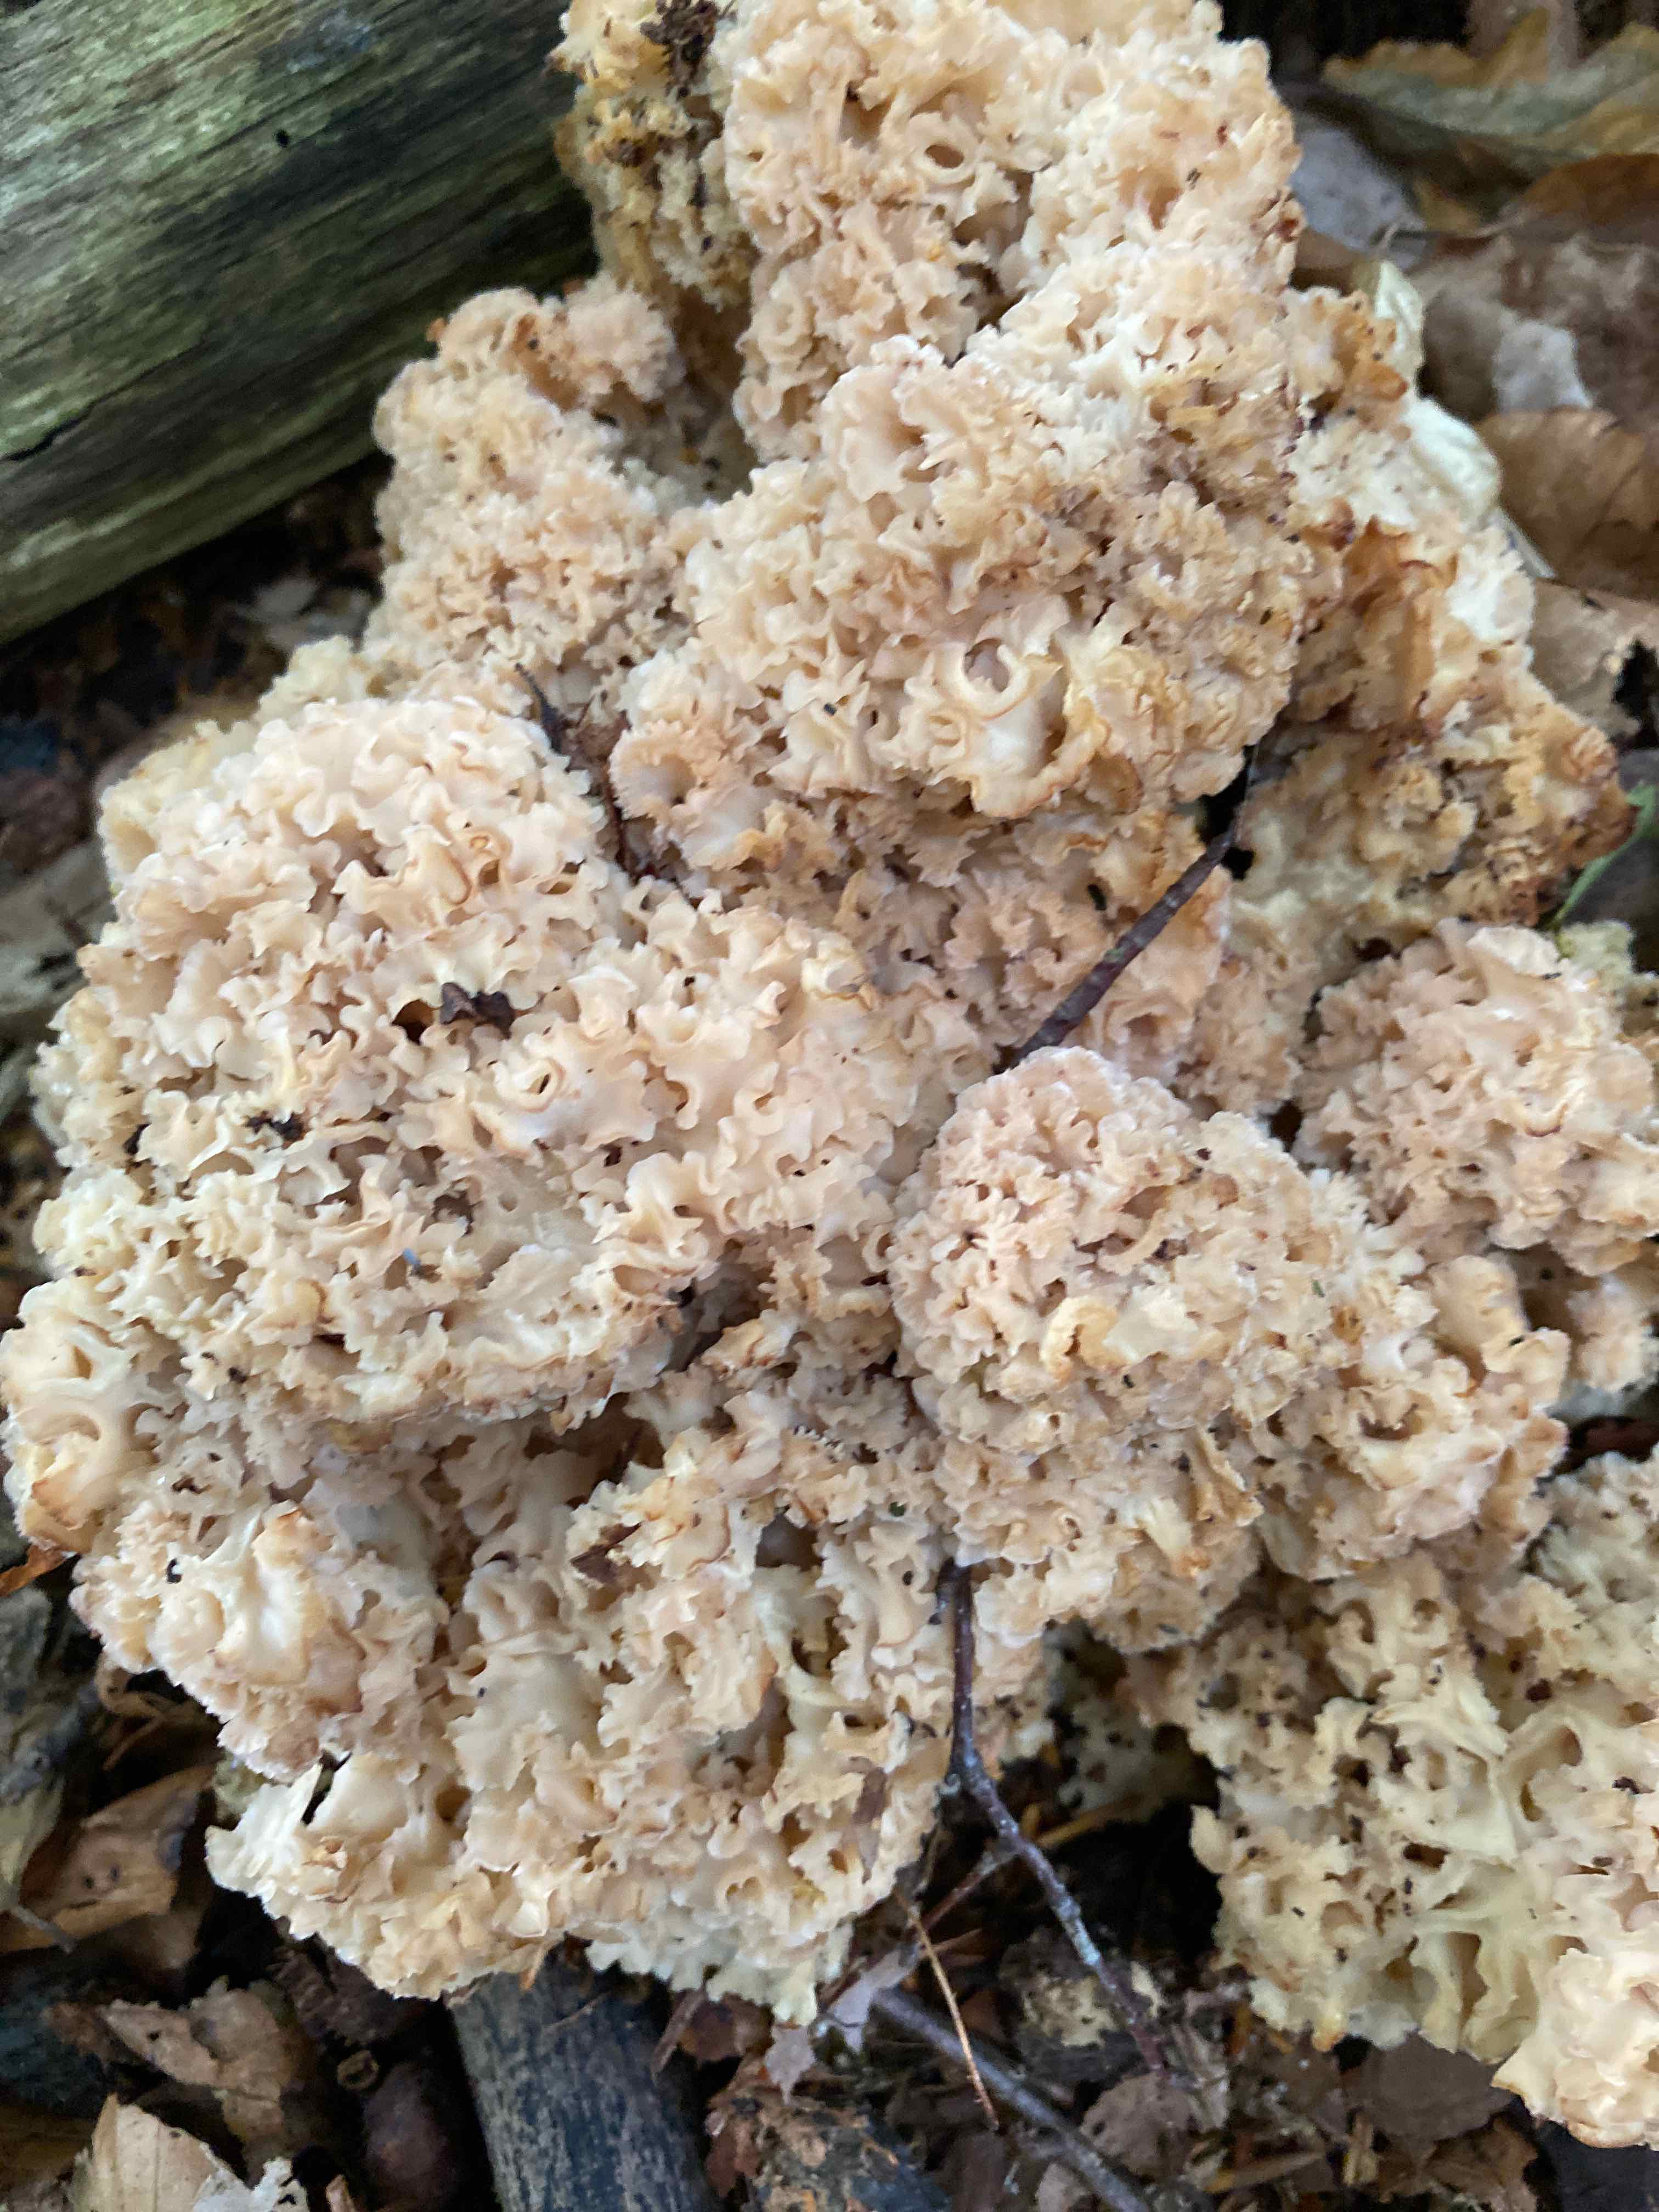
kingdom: Fungi
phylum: Basidiomycota
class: Agaricomycetes
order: Polyporales
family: Sparassidaceae
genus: Sparassis
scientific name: Sparassis crispa
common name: kruset blomkålssvamp
